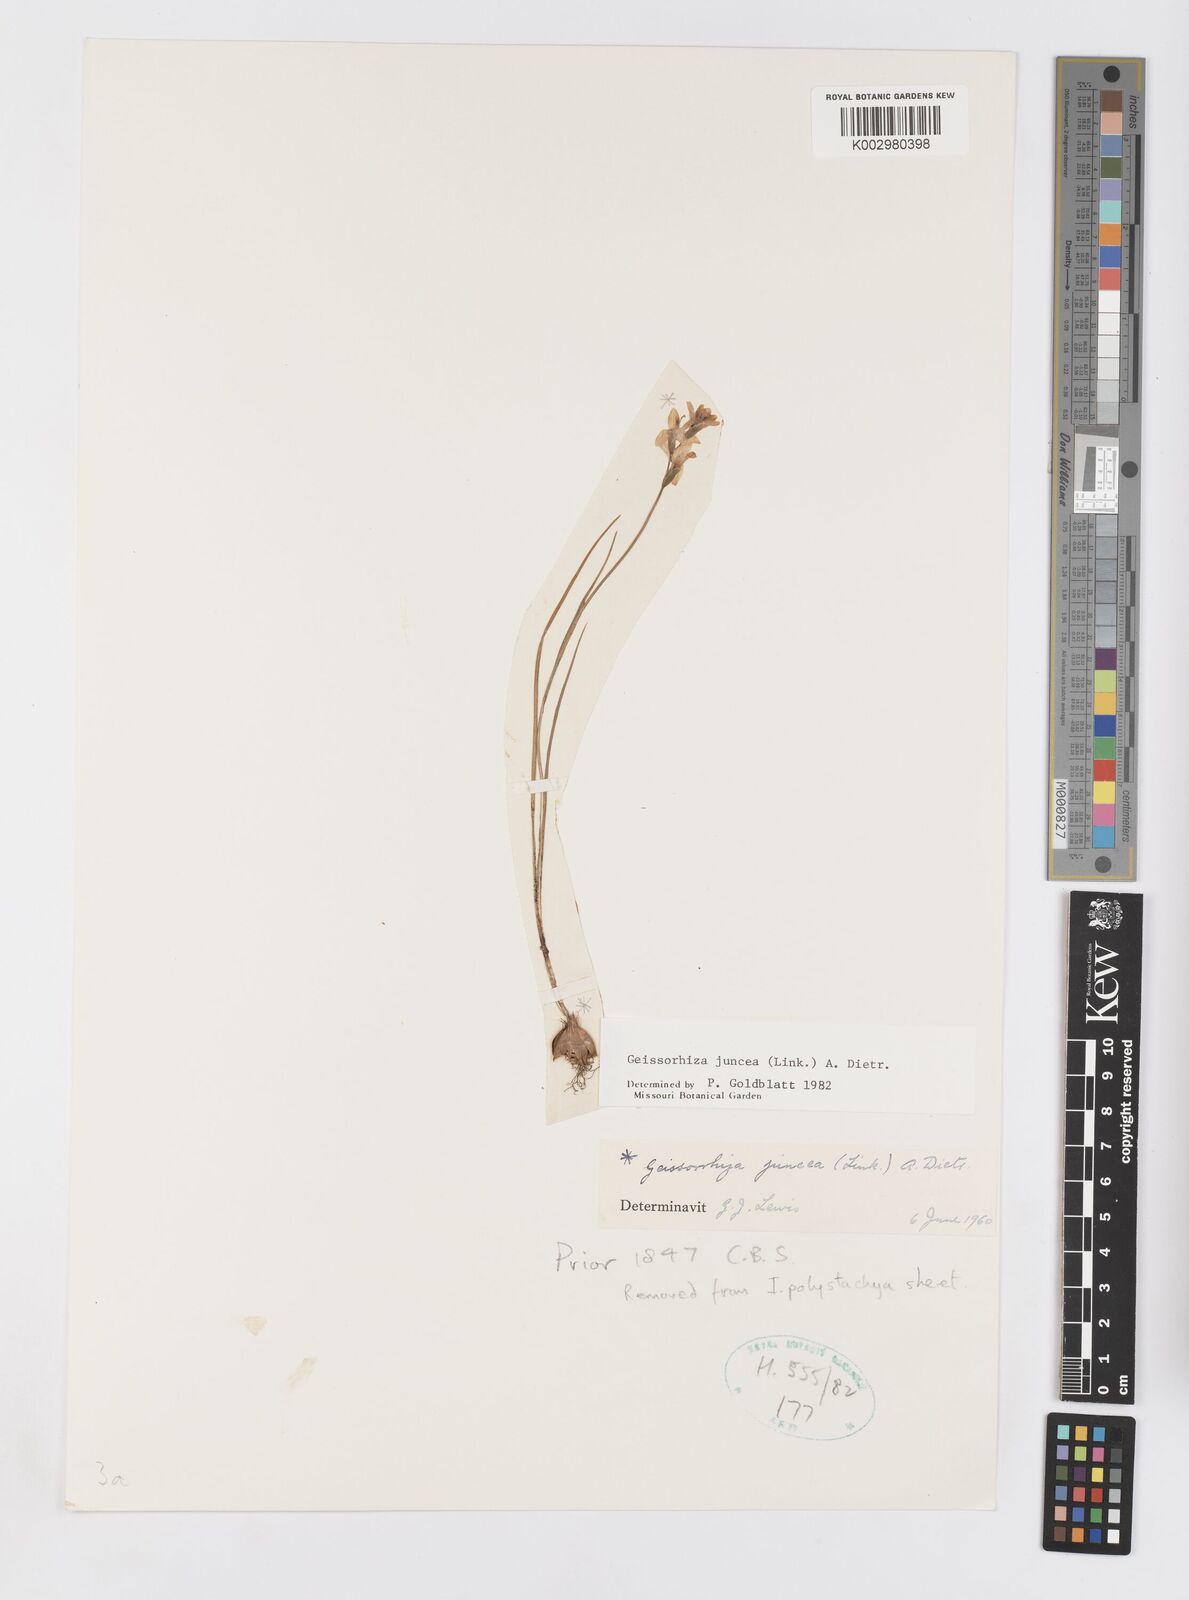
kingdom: Plantae
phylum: Tracheophyta
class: Liliopsida
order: Asparagales
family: Iridaceae
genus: Geissorhiza
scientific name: Geissorhiza juncea
